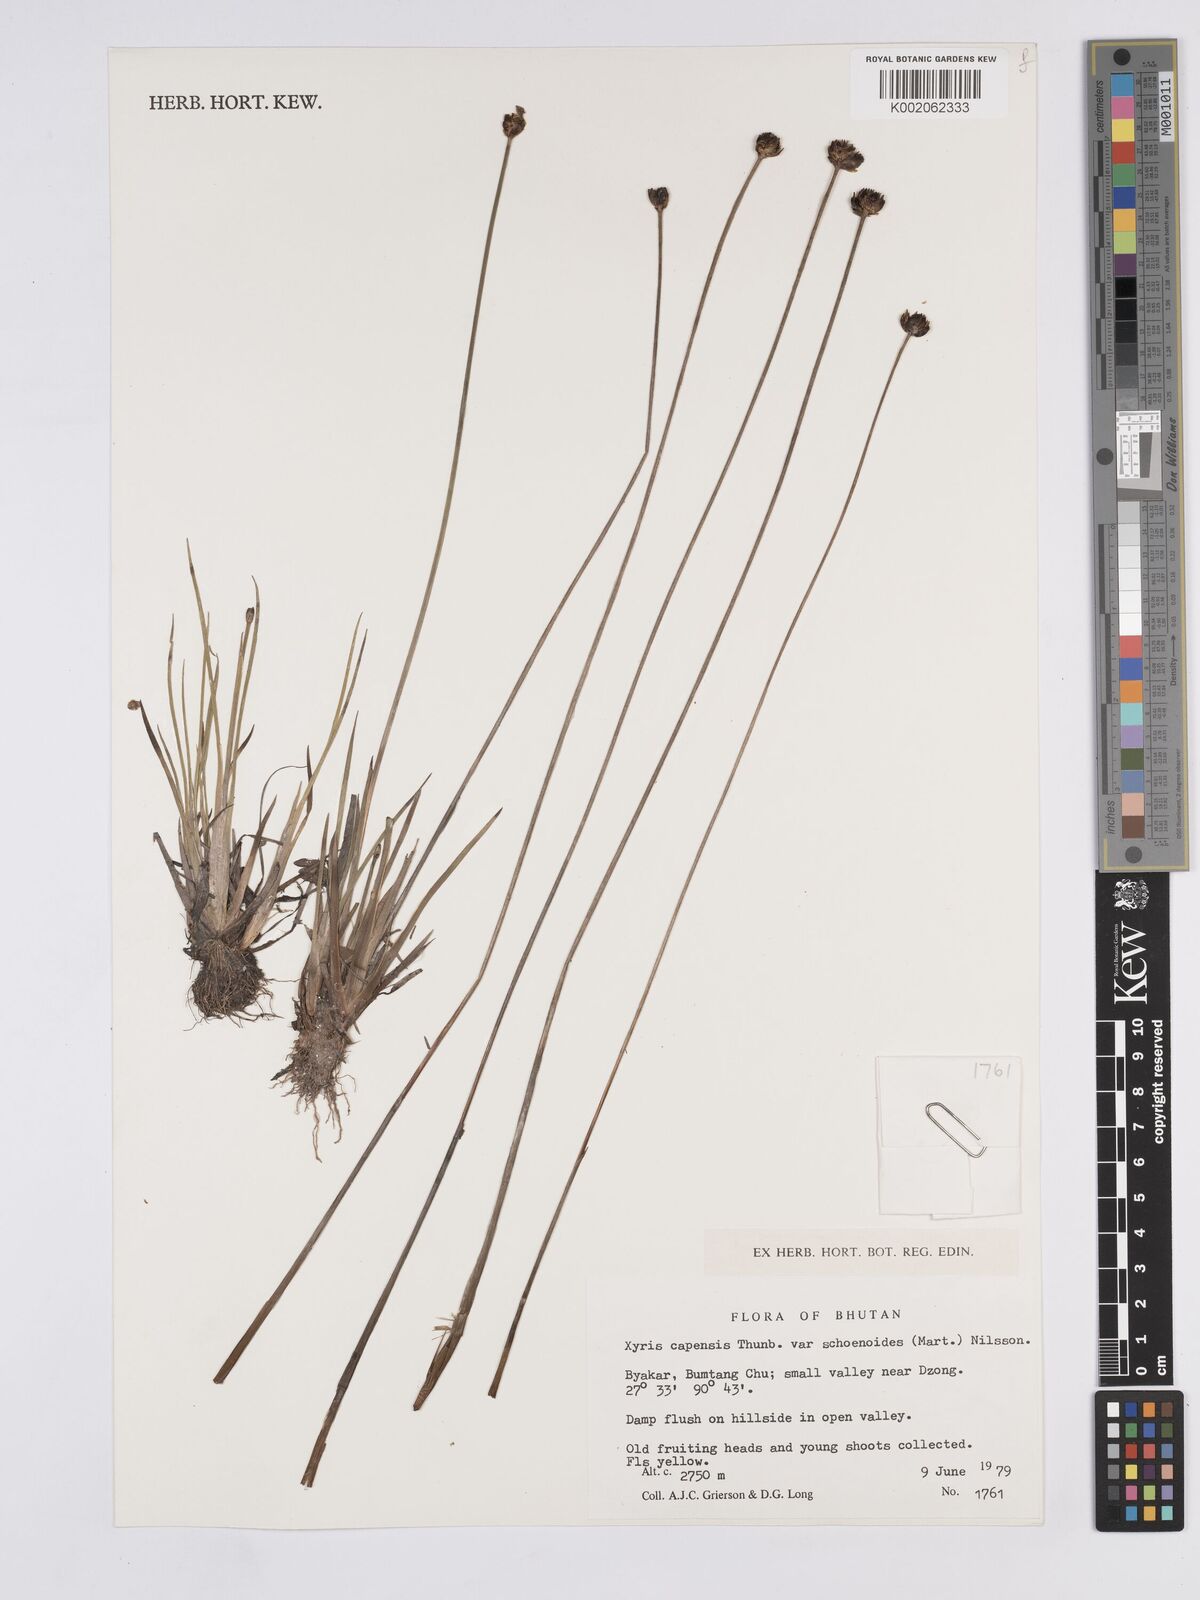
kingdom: Plantae
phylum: Tracheophyta
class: Liliopsida
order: Poales
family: Xyridaceae
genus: Xyris
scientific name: Xyris capensis
